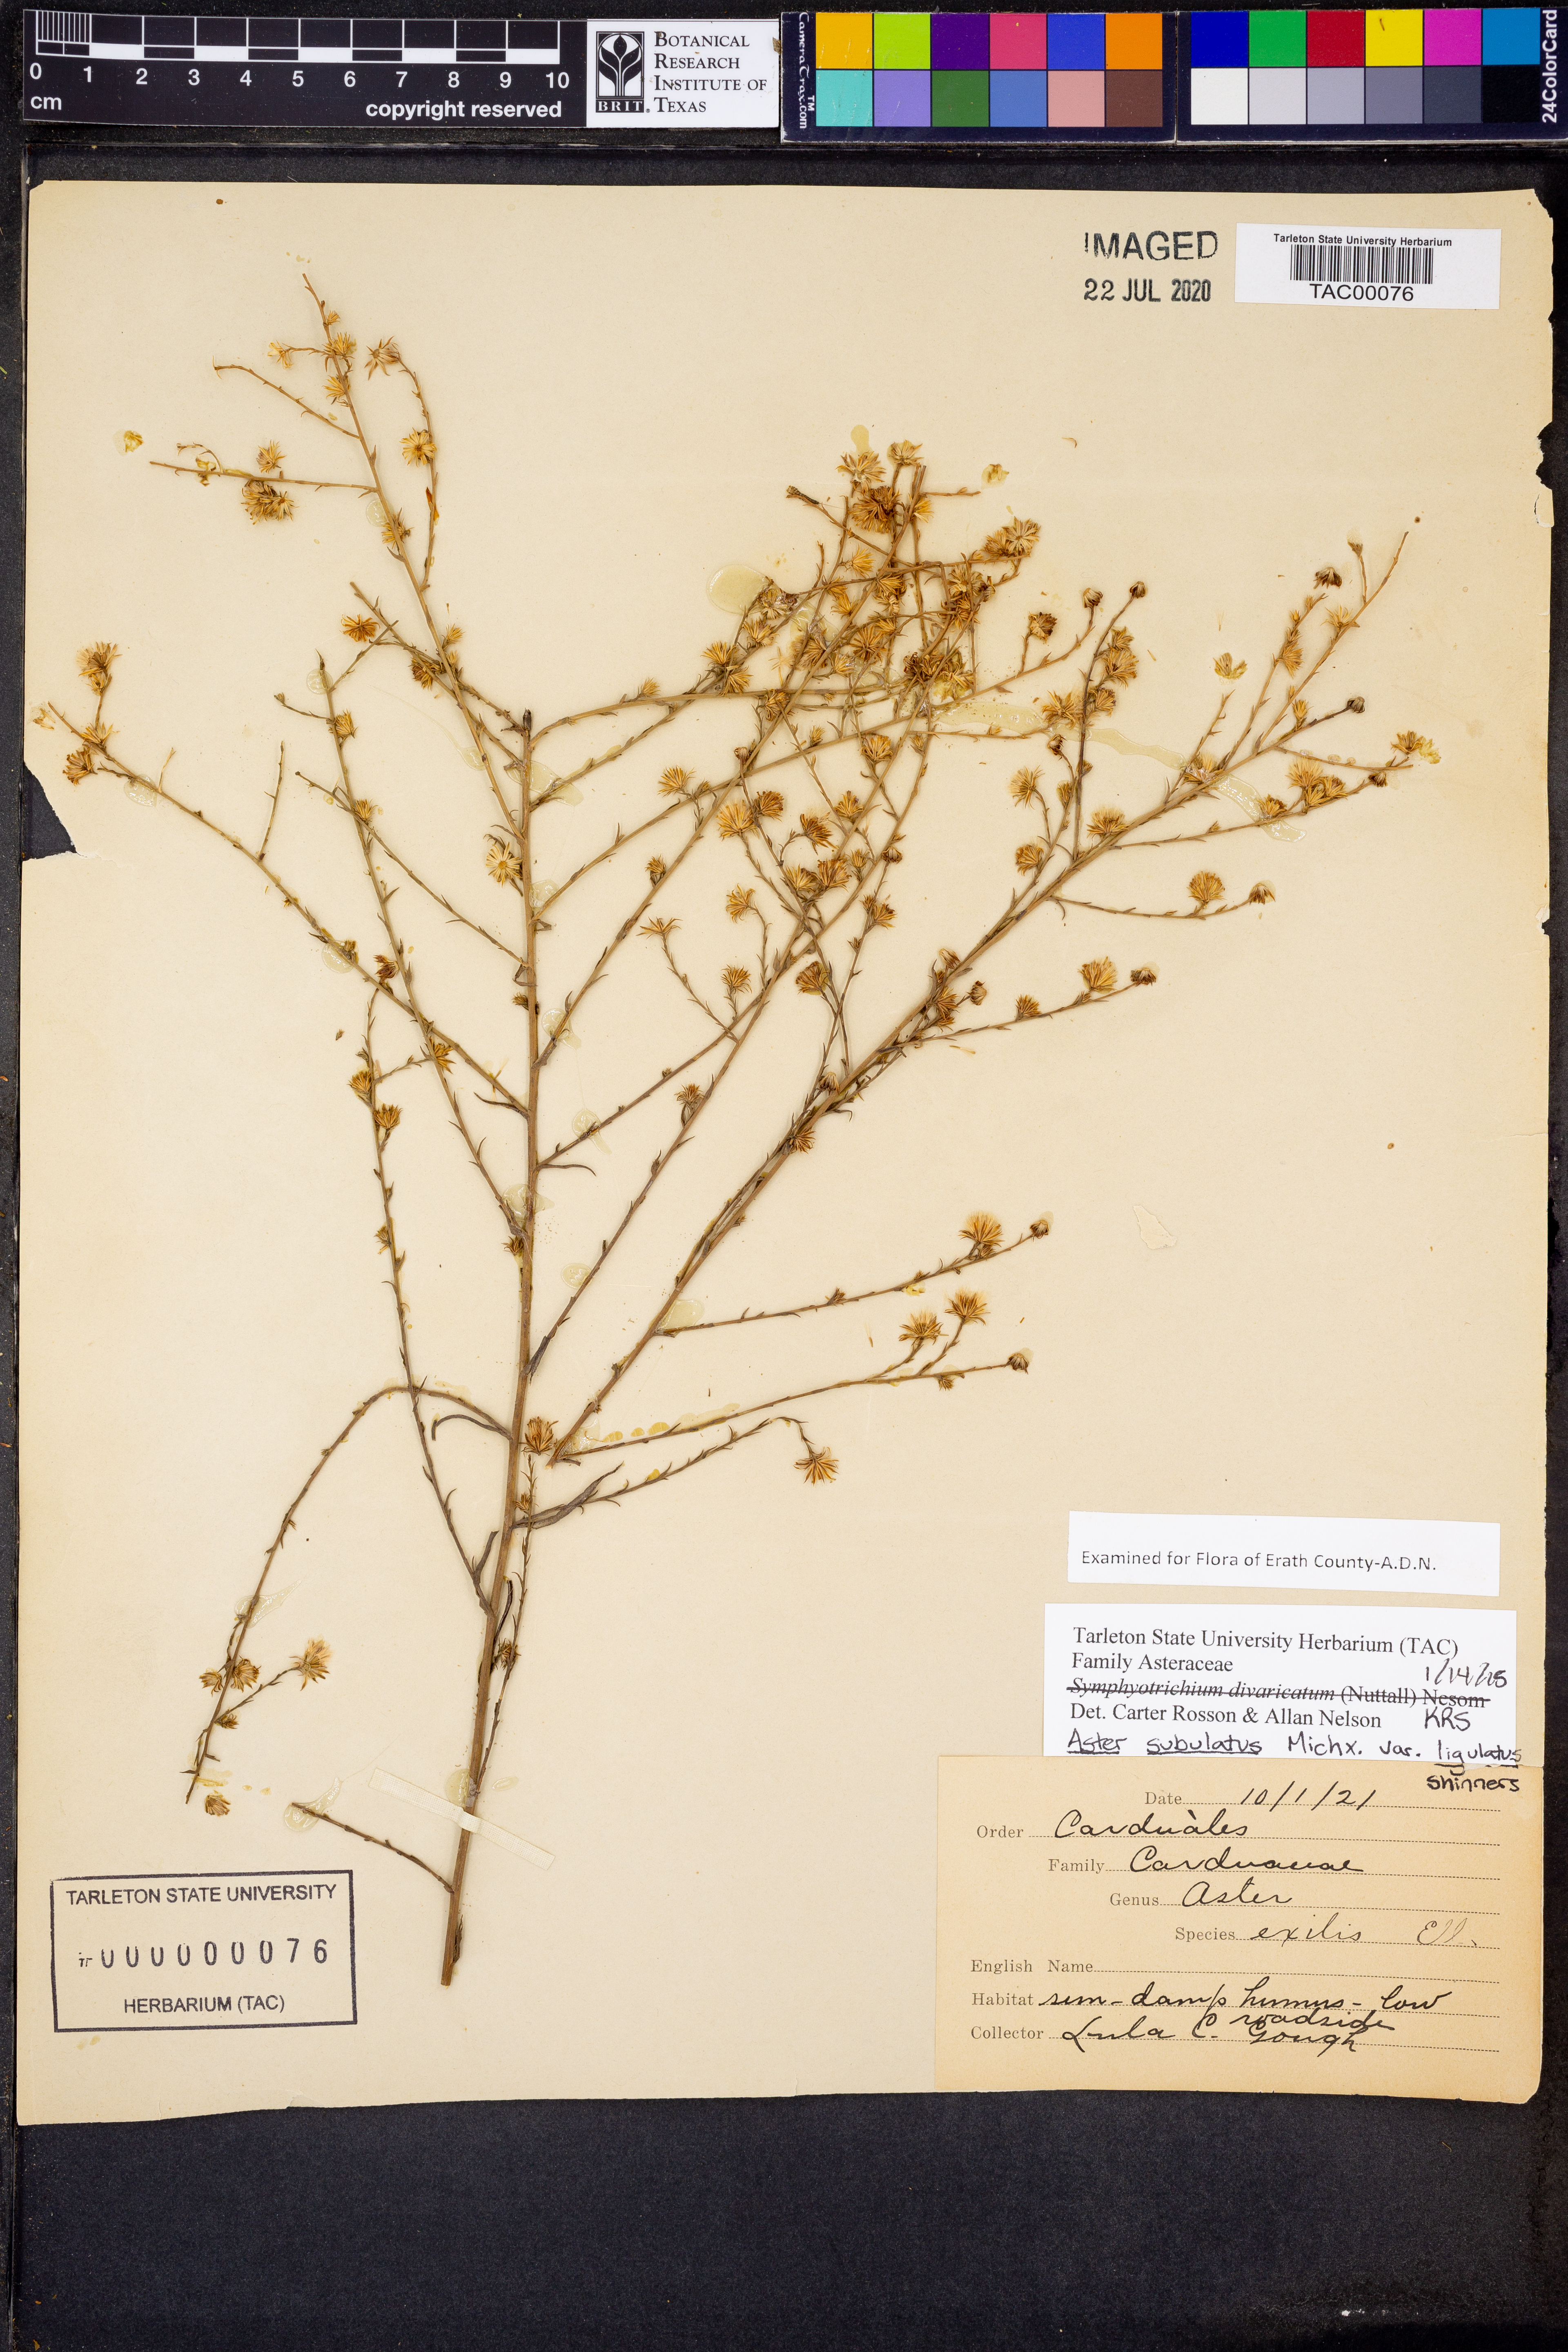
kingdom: Plantae
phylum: Tracheophyta
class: Magnoliopsida
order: Asterales
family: Asteraceae
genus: Symphyotrichum
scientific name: Symphyotrichum divaricatum
